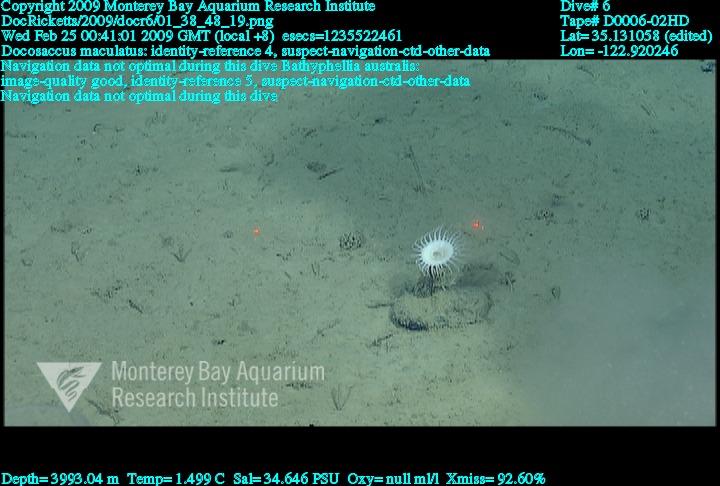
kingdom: Animalia
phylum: Porifera
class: Hexactinellida
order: Lyssacinosida
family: Euplectellidae
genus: Docosaccus
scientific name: Docosaccus maculatus
